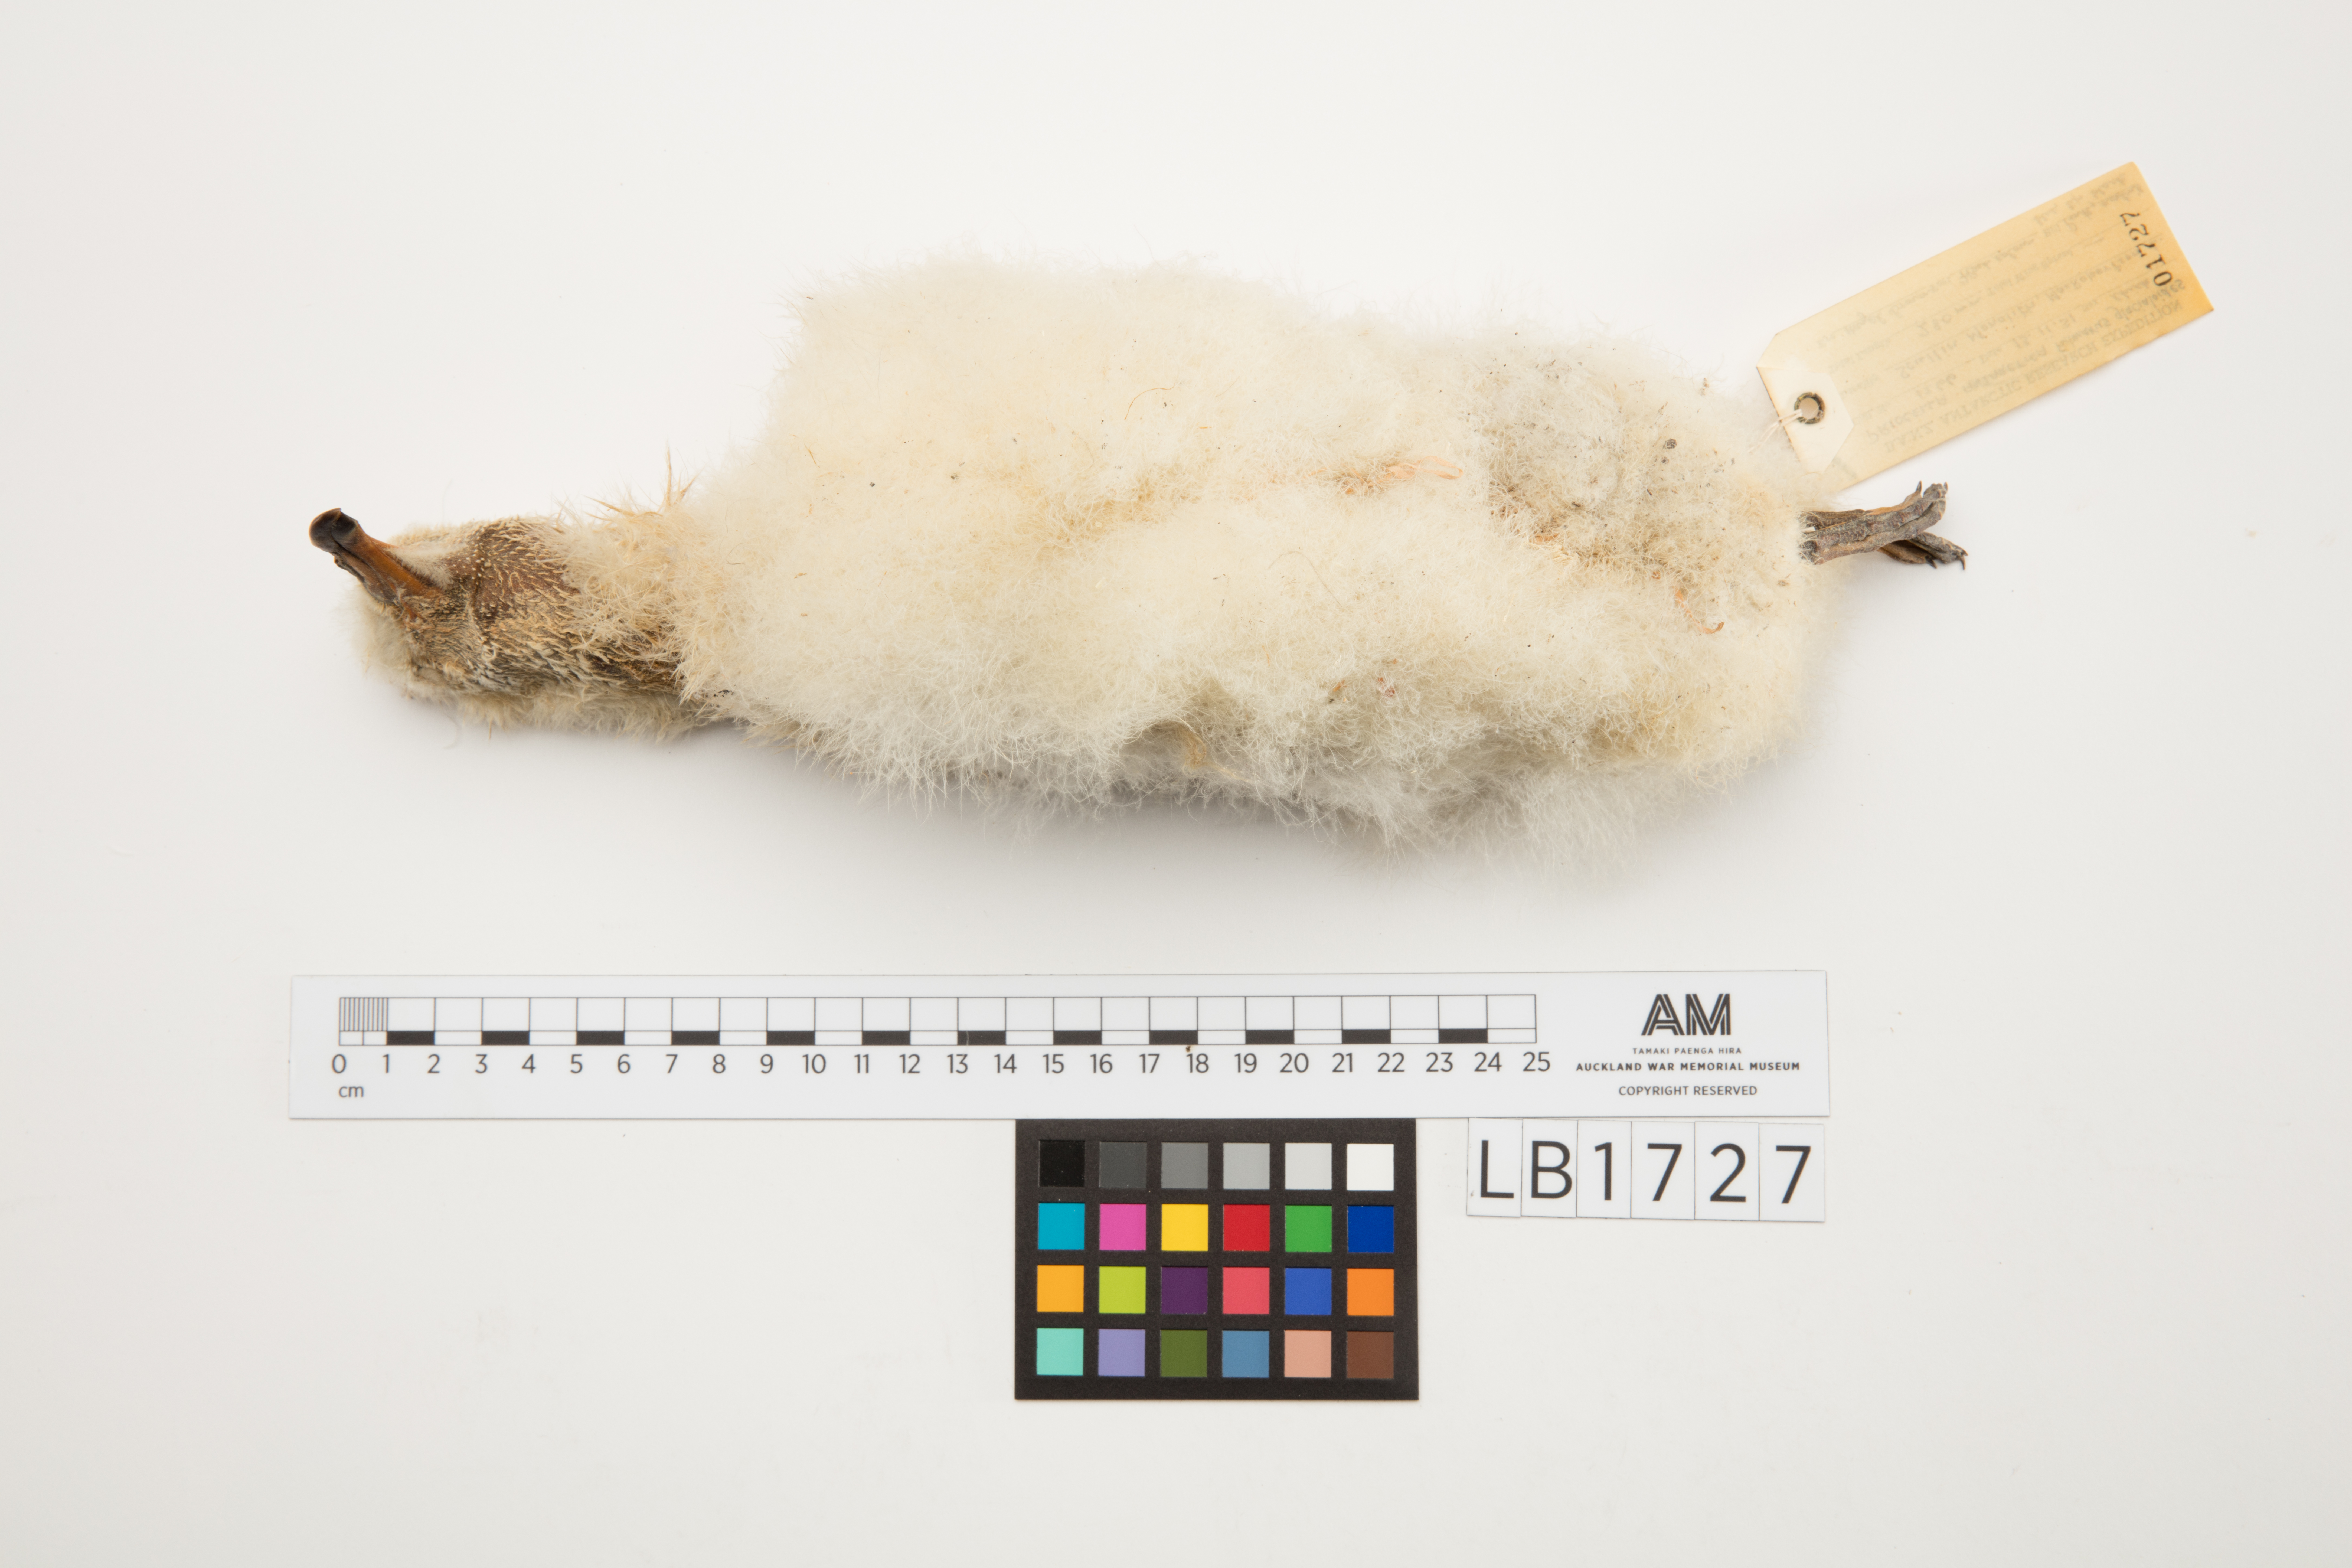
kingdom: Animalia
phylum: Chordata
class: Aves
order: Procellariiformes
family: Procellariidae
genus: Fulmarus
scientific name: Fulmarus glacialoides
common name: Southern fulmar
